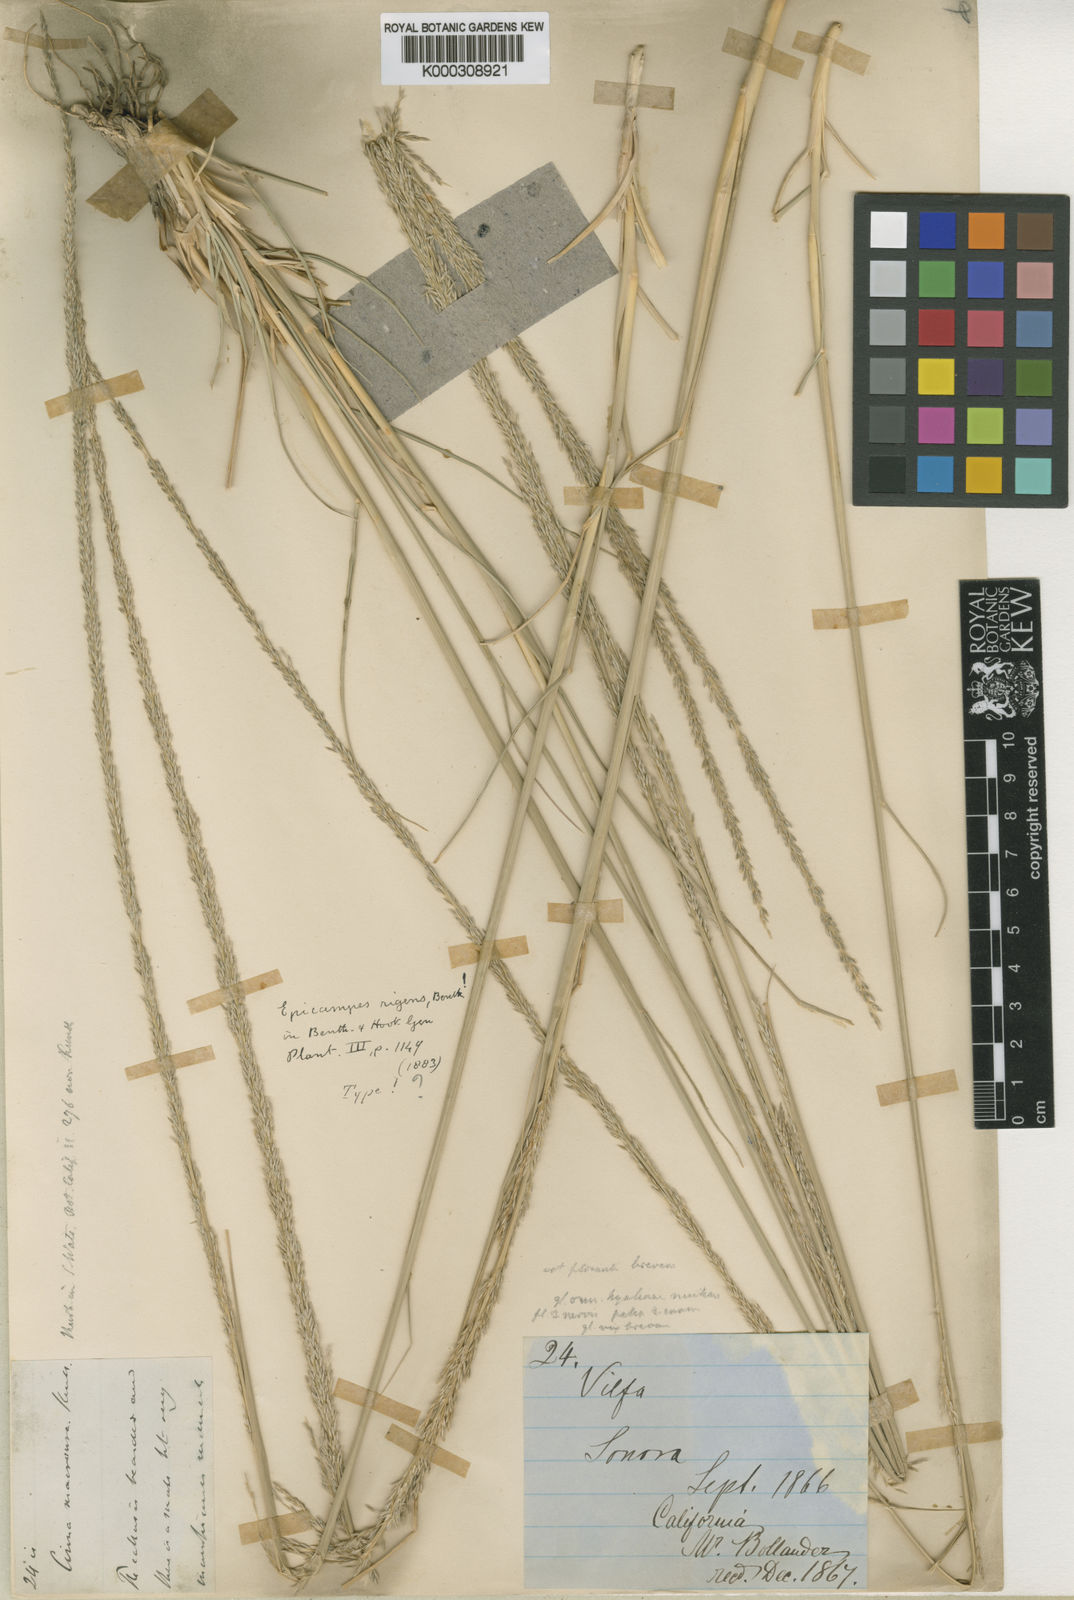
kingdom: Plantae
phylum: Tracheophyta
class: Liliopsida
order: Poales
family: Poaceae
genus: Muhlenbergia
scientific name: Muhlenbergia rigens
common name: Deer grass
